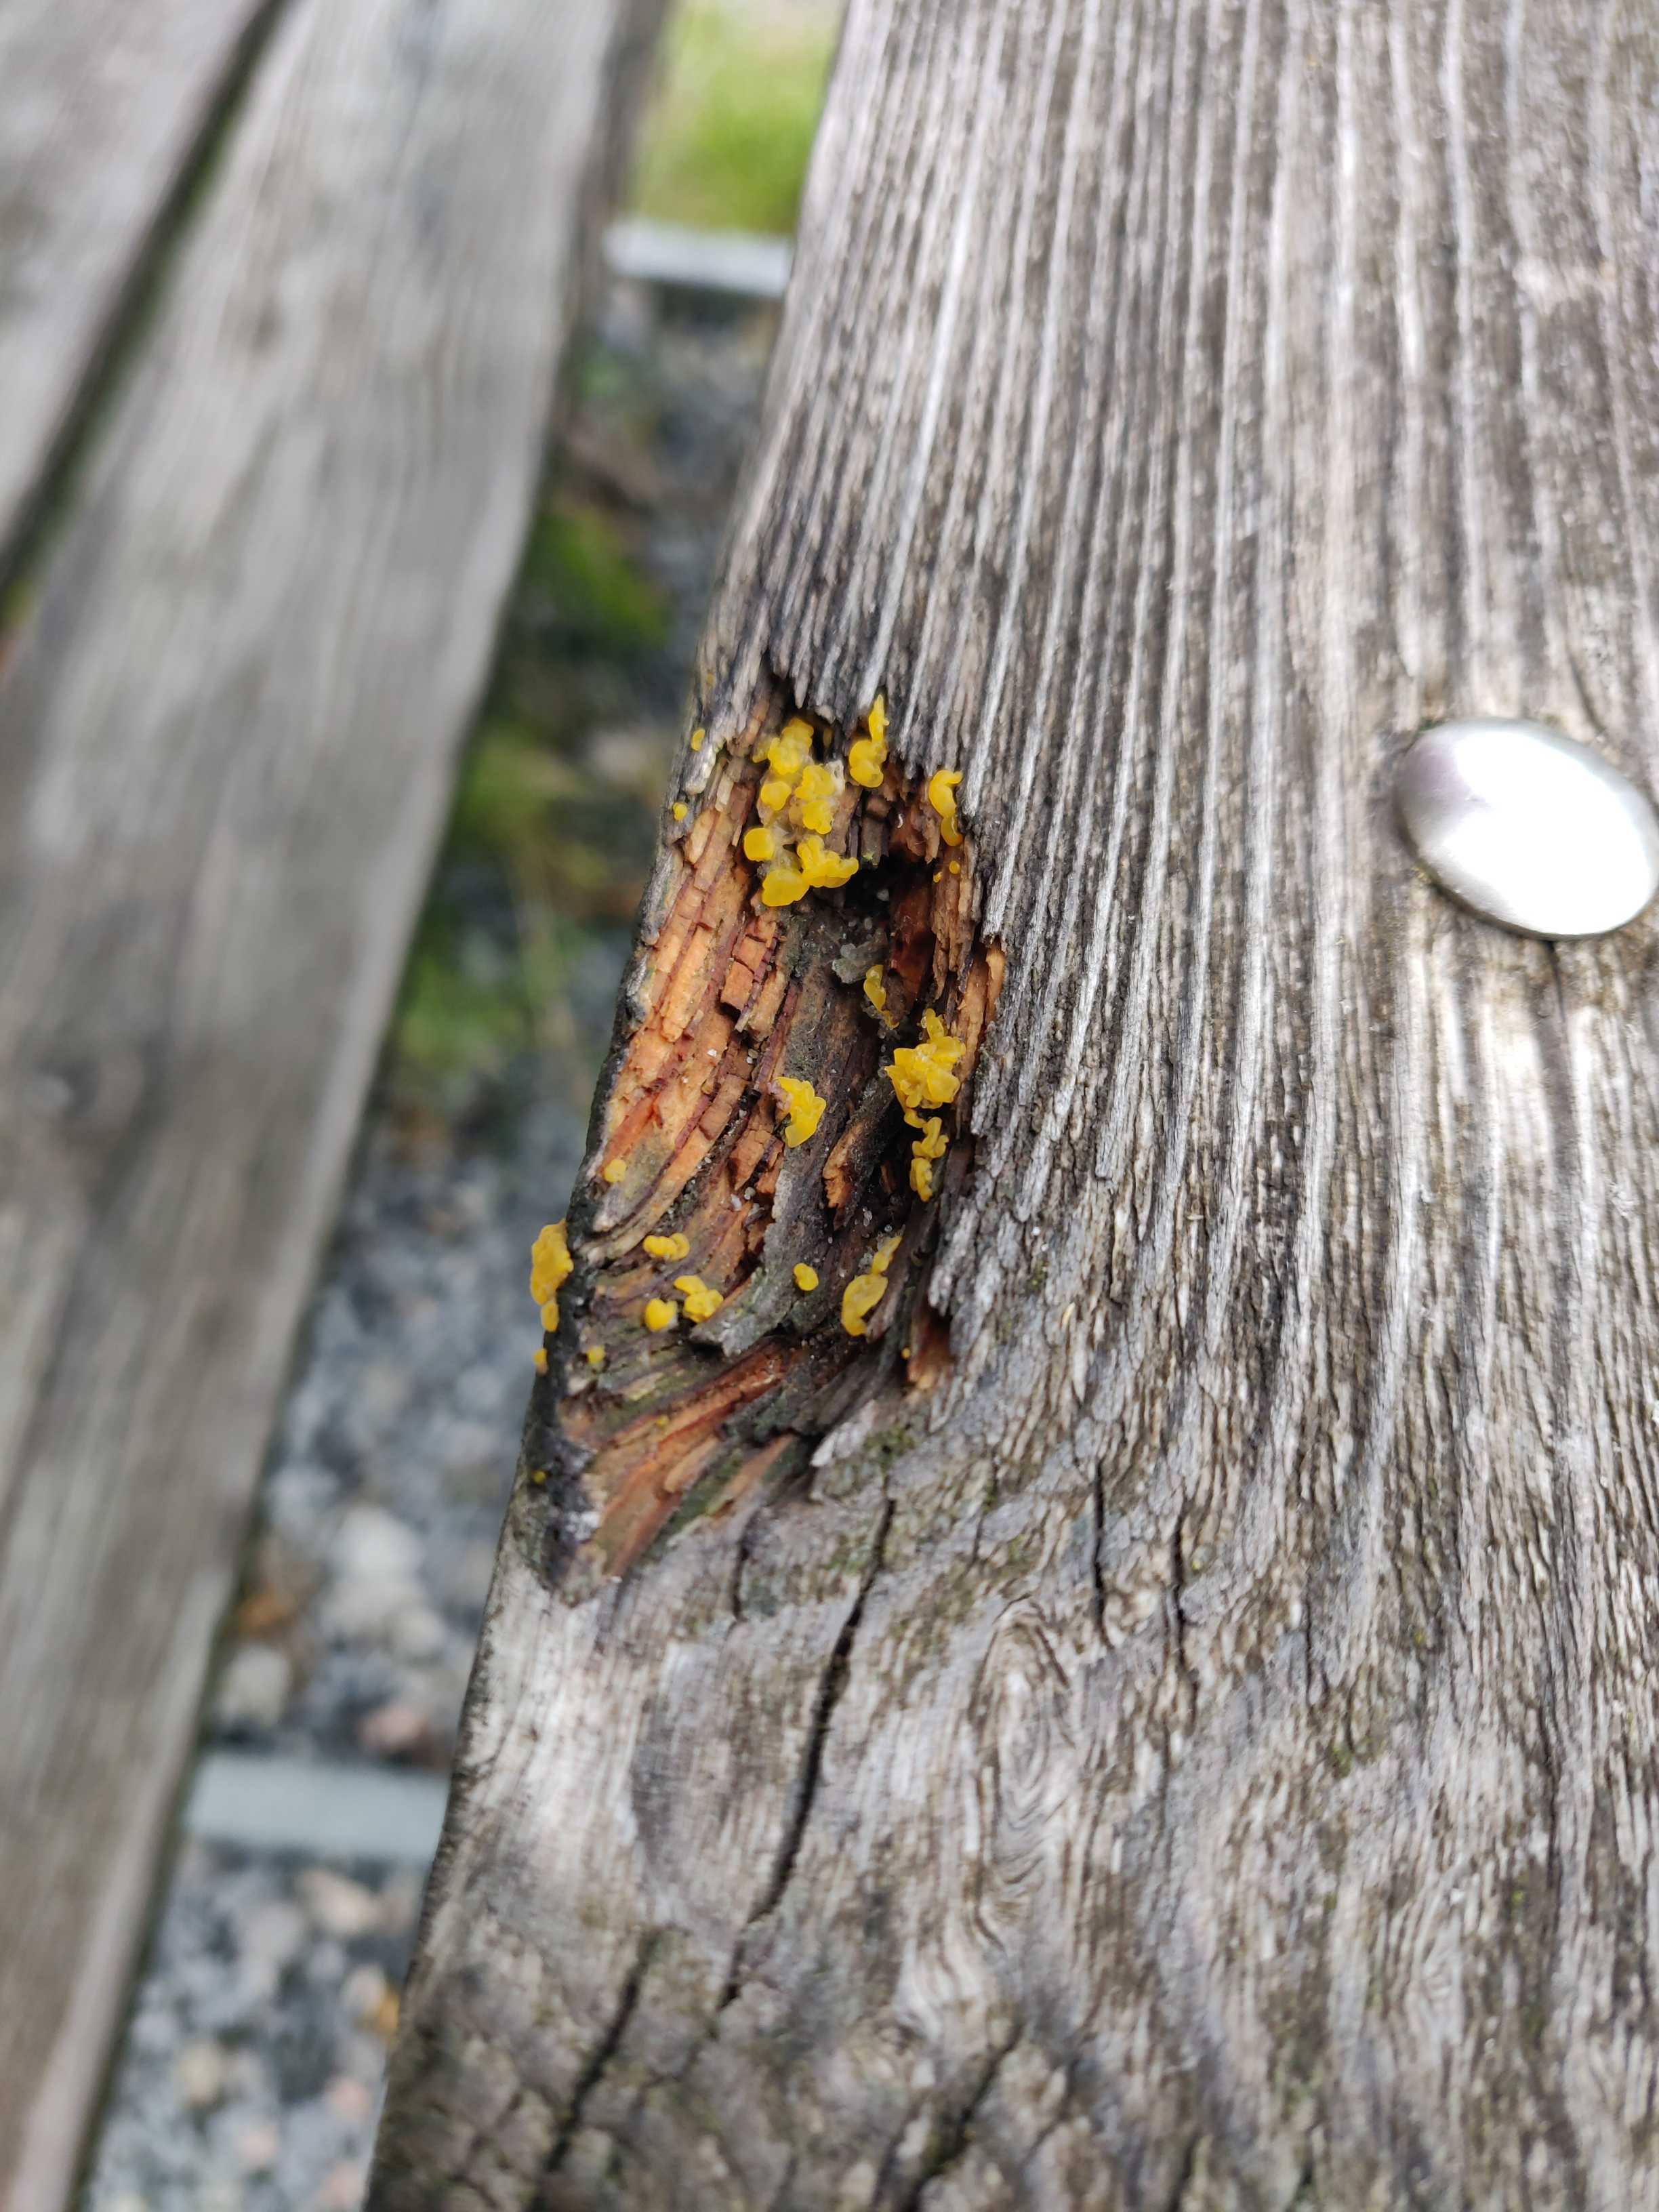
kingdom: Fungi
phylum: Basidiomycota
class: Dacrymycetes
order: Dacrymycetales
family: Dacrymycetaceae
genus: Dacrymyces
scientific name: Dacrymyces stillatus
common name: almindelig tåresvamp
